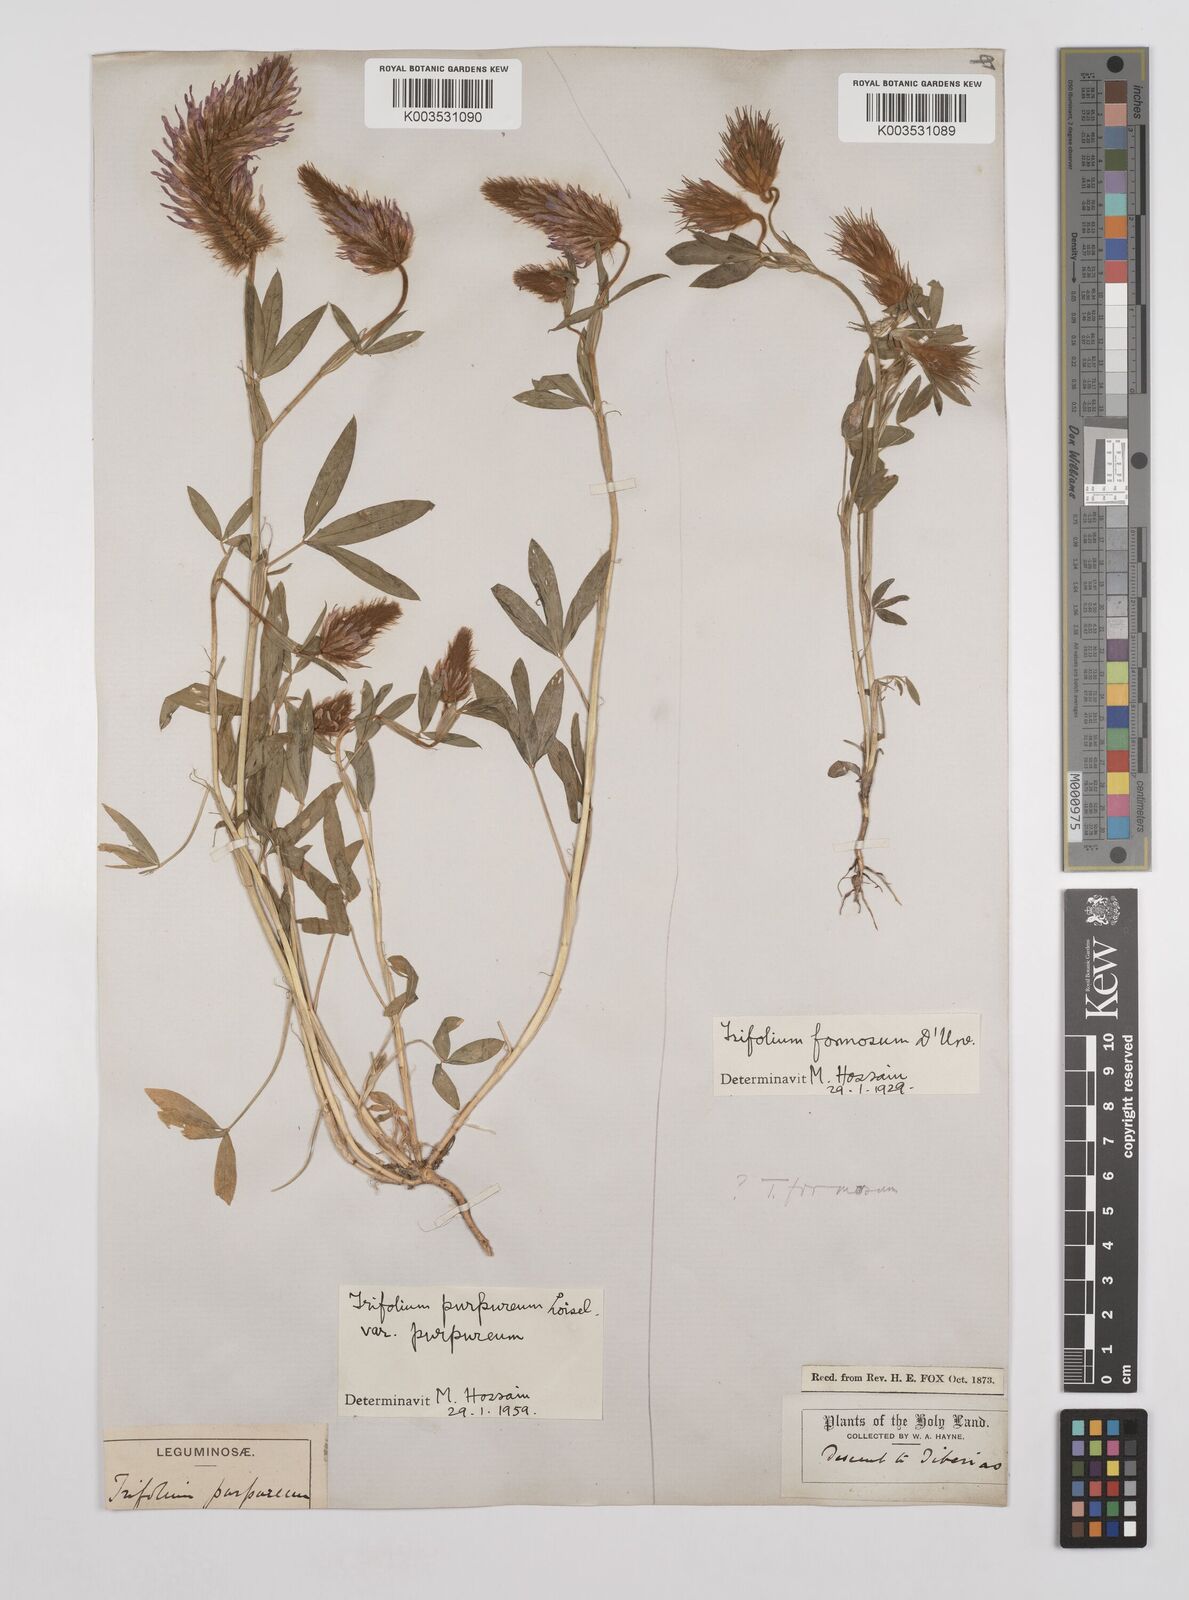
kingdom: Plantae
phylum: Tracheophyta
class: Magnoliopsida
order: Fabales
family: Fabaceae
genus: Trifolium
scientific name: Trifolium purpureum
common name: Purple clover
